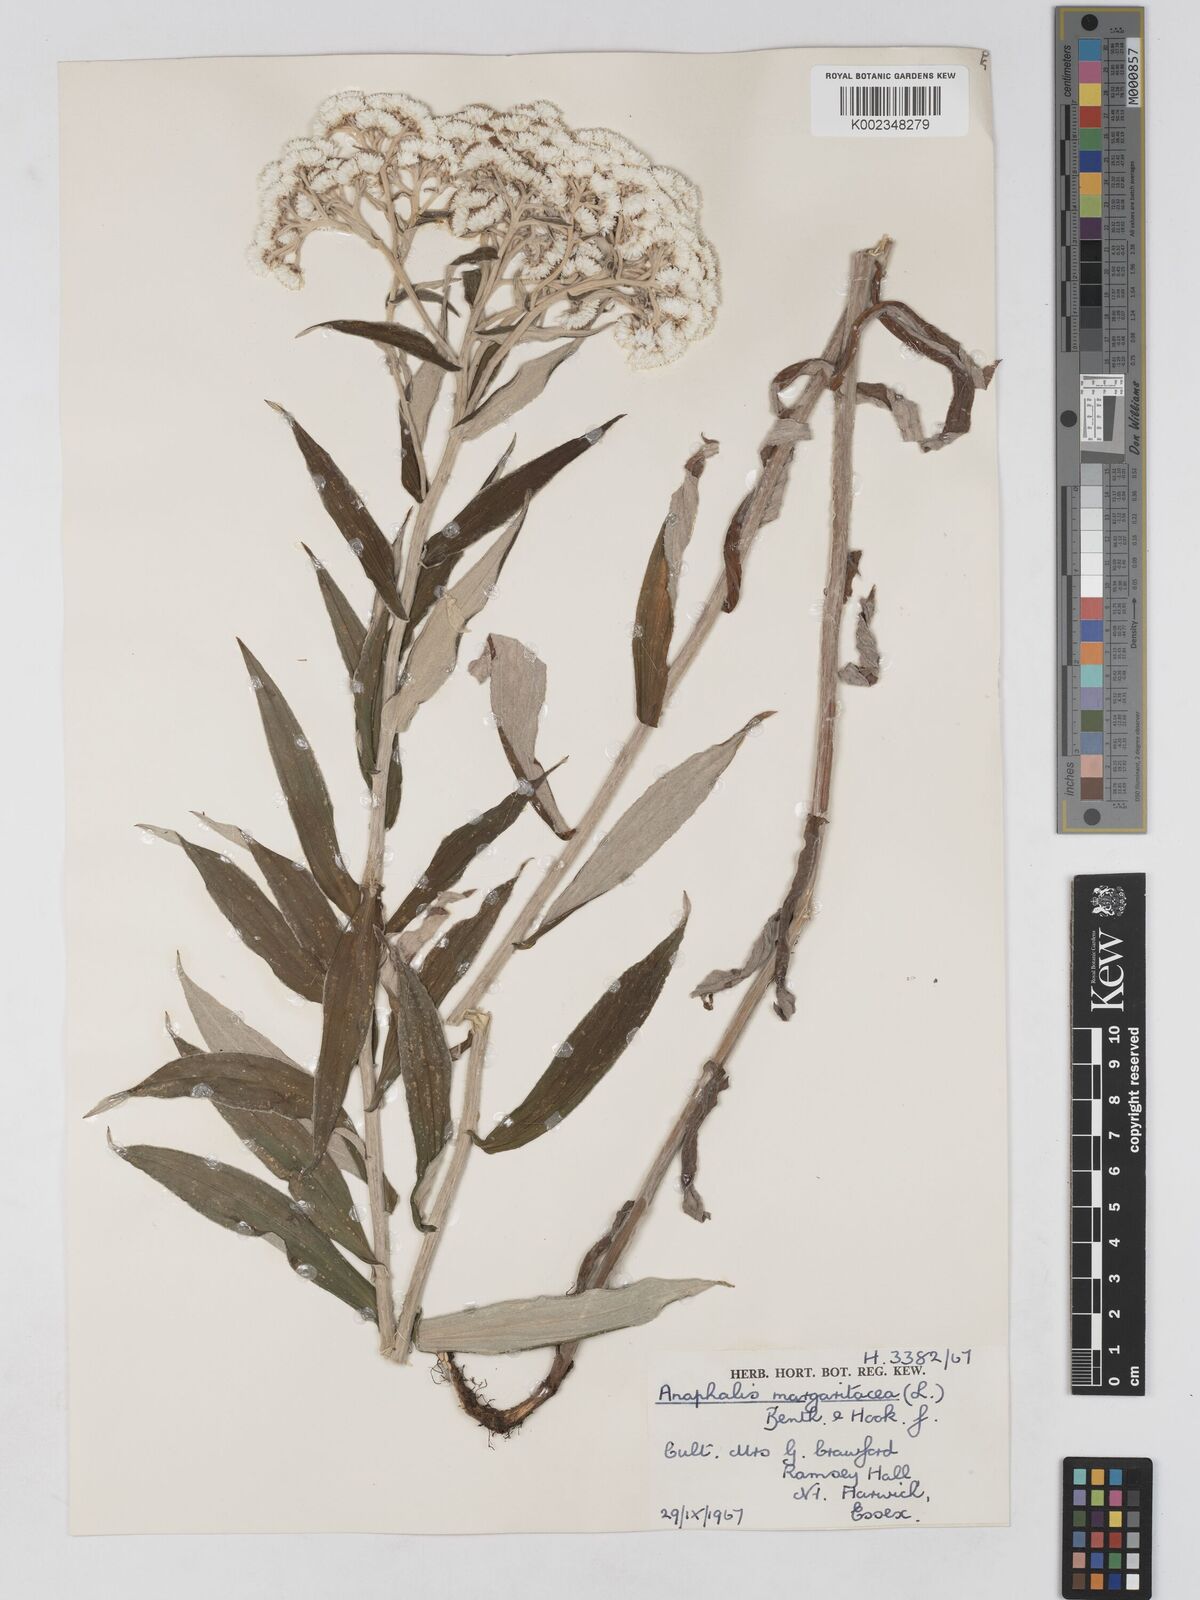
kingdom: Plantae
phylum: Tracheophyta
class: Magnoliopsida
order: Asterales
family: Asteraceae
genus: Anaphalis
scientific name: Anaphalis margaritacea
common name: Pearly everlasting
